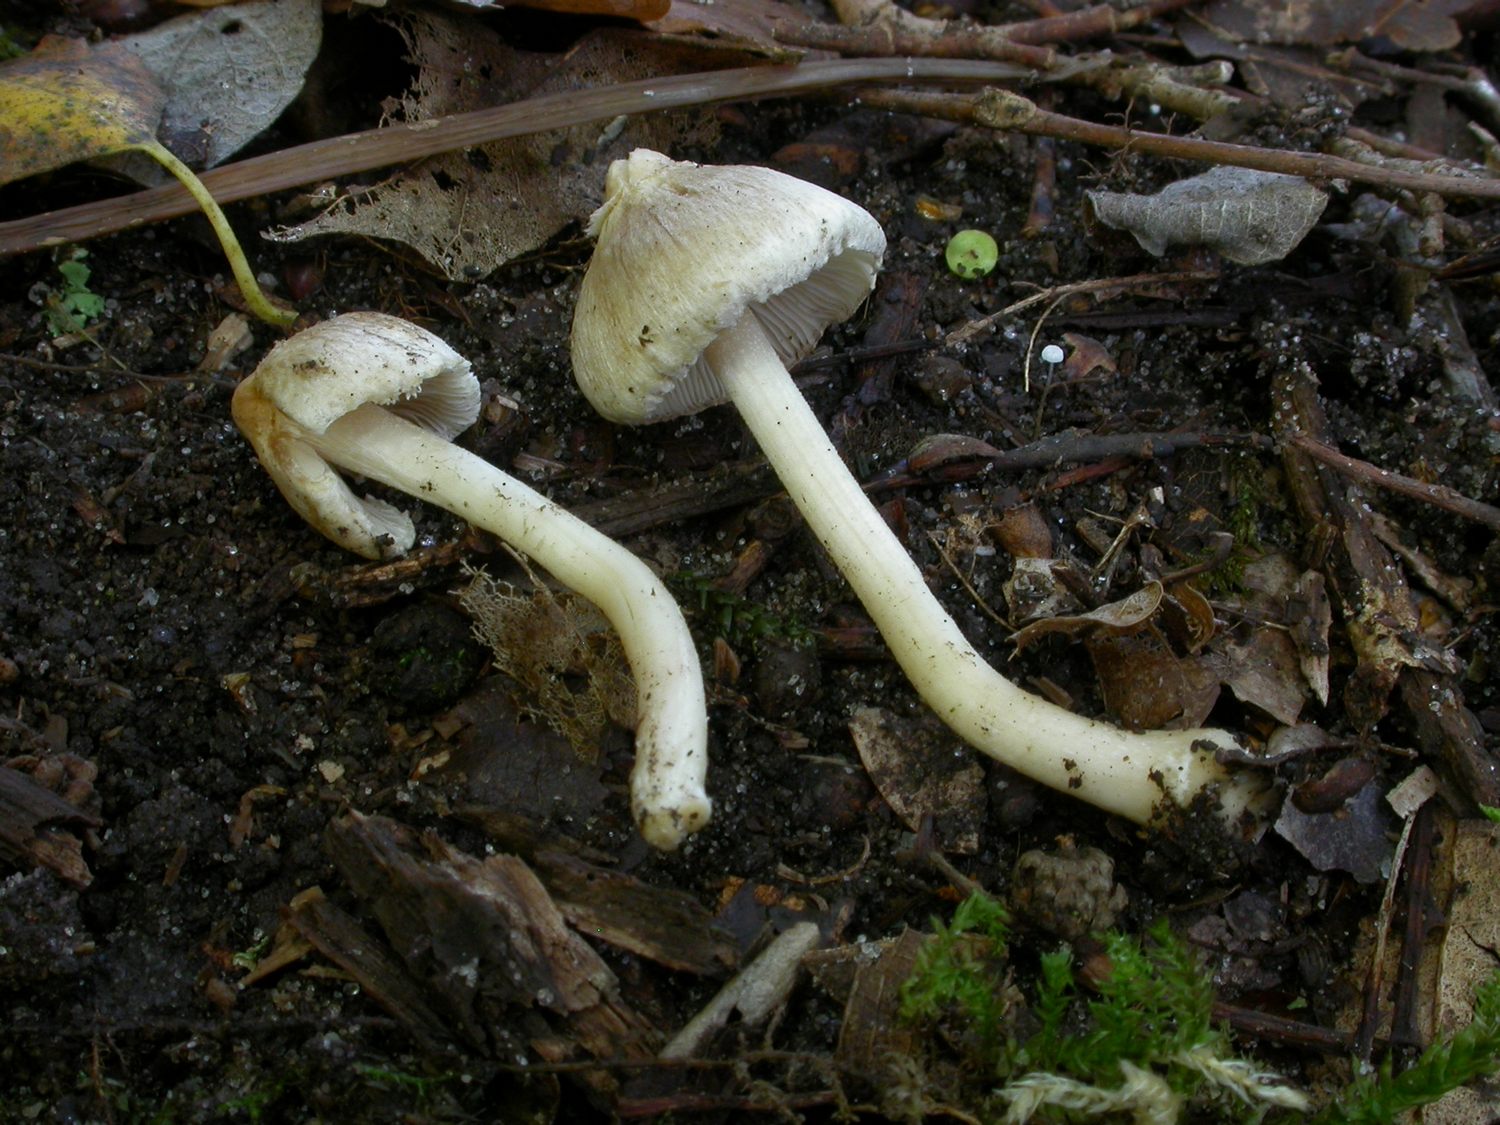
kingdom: Fungi
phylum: Basidiomycota
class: Agaricomycetes
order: Agaricales
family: Inocybaceae
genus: Inocybe
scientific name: Inocybe sindonia
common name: bleg trævlhat
